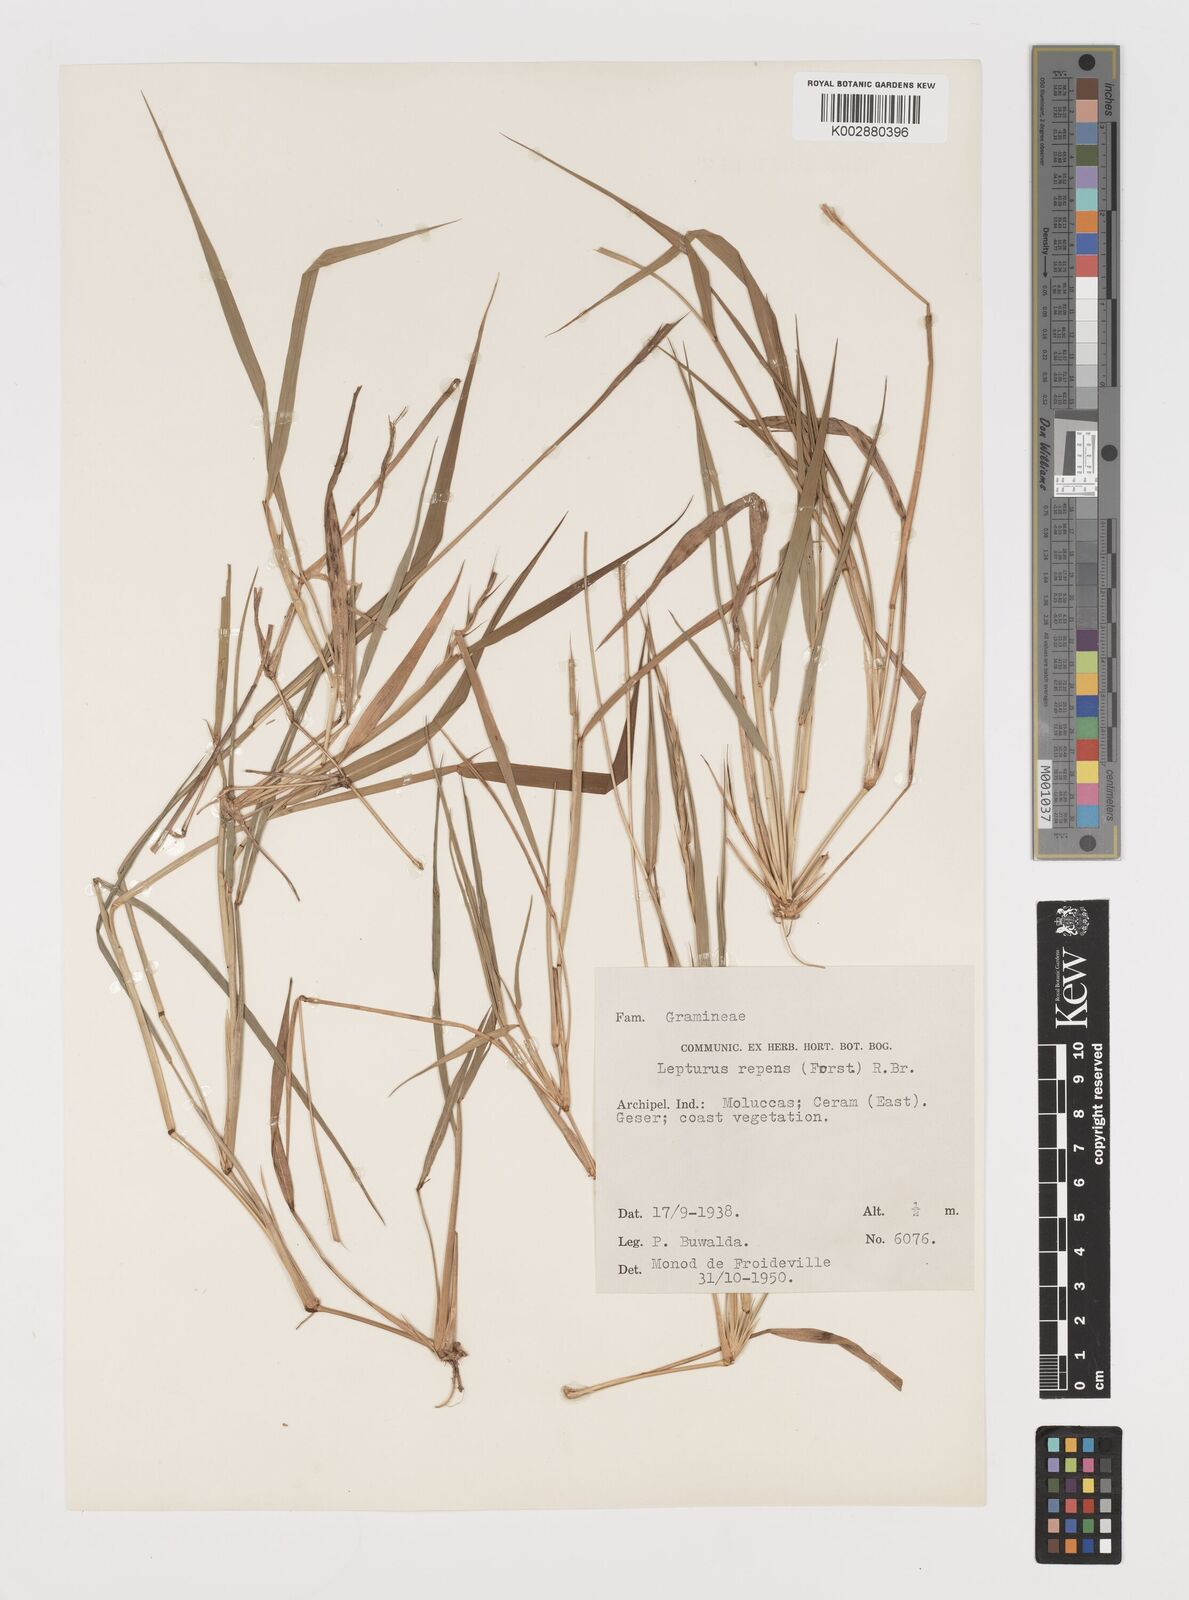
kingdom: Plantae
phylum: Tracheophyta
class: Liliopsida
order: Poales
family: Poaceae
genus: Lepturus
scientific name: Lepturus repens
